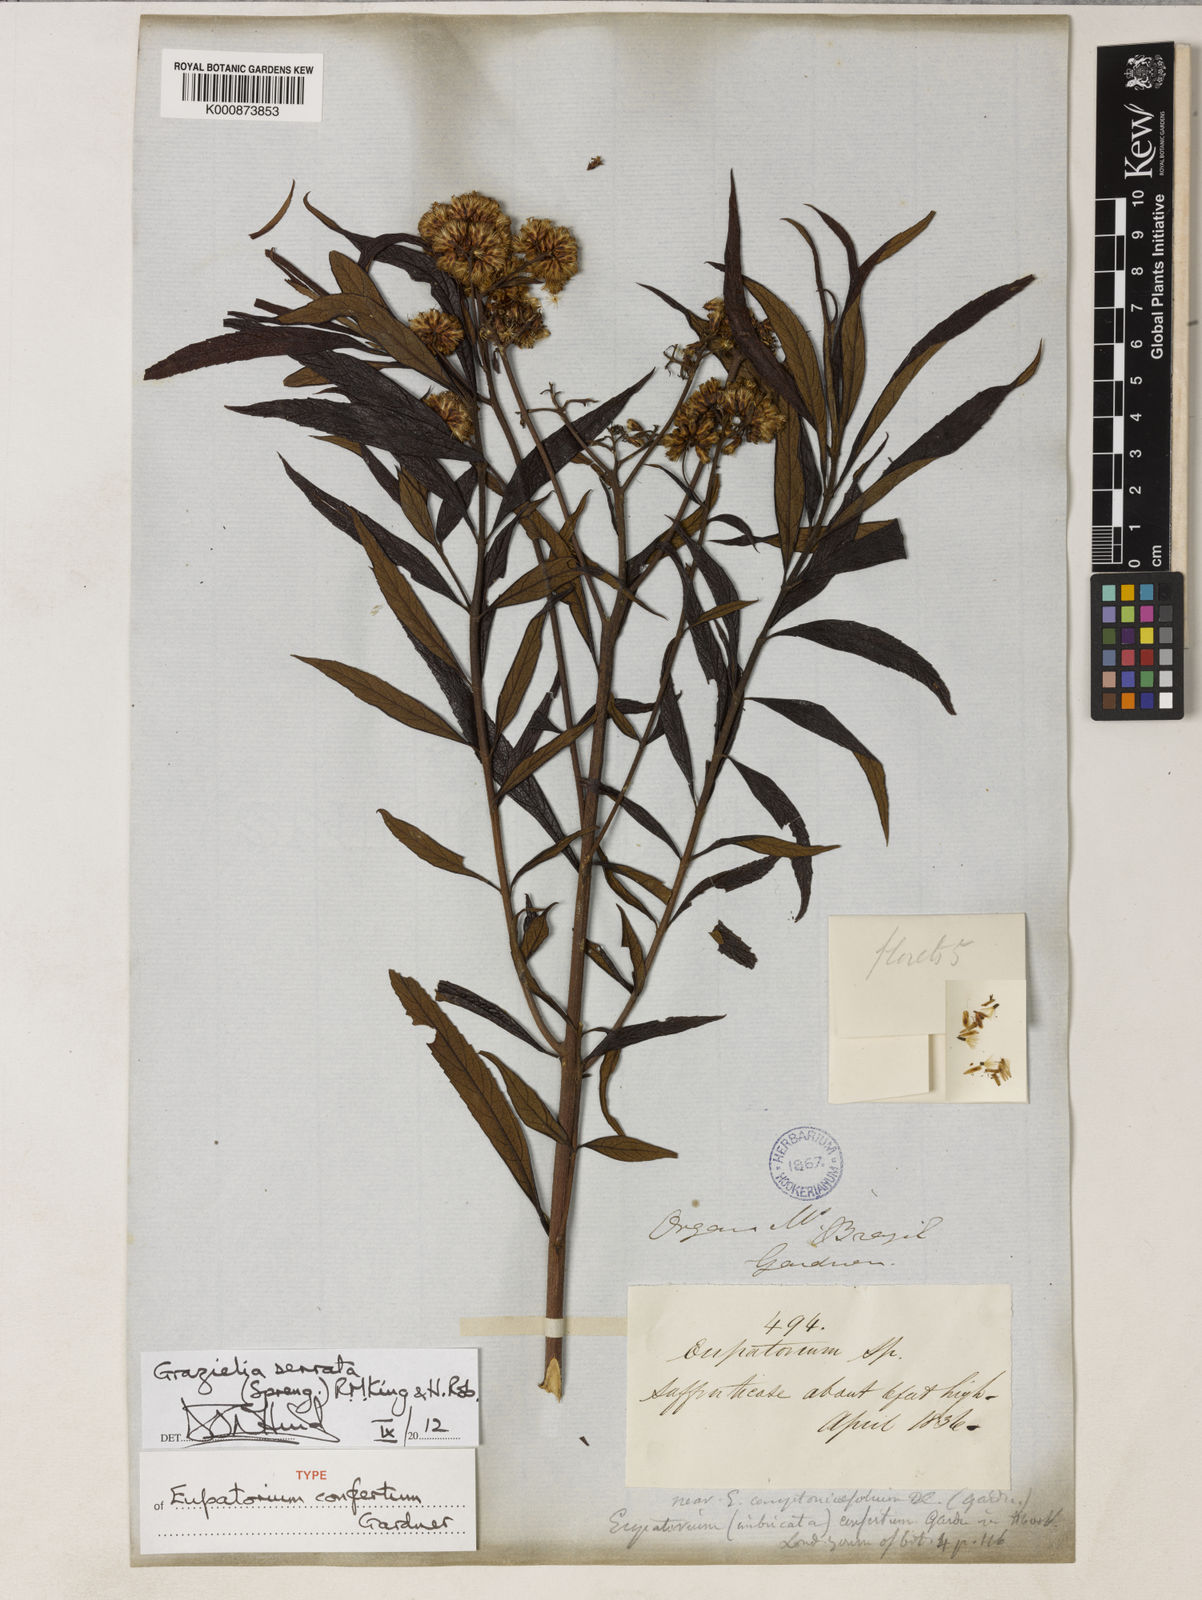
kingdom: Plantae
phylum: Tracheophyta
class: Magnoliopsida
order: Asterales
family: Asteraceae
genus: Grazielia
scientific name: Grazielia serrata
